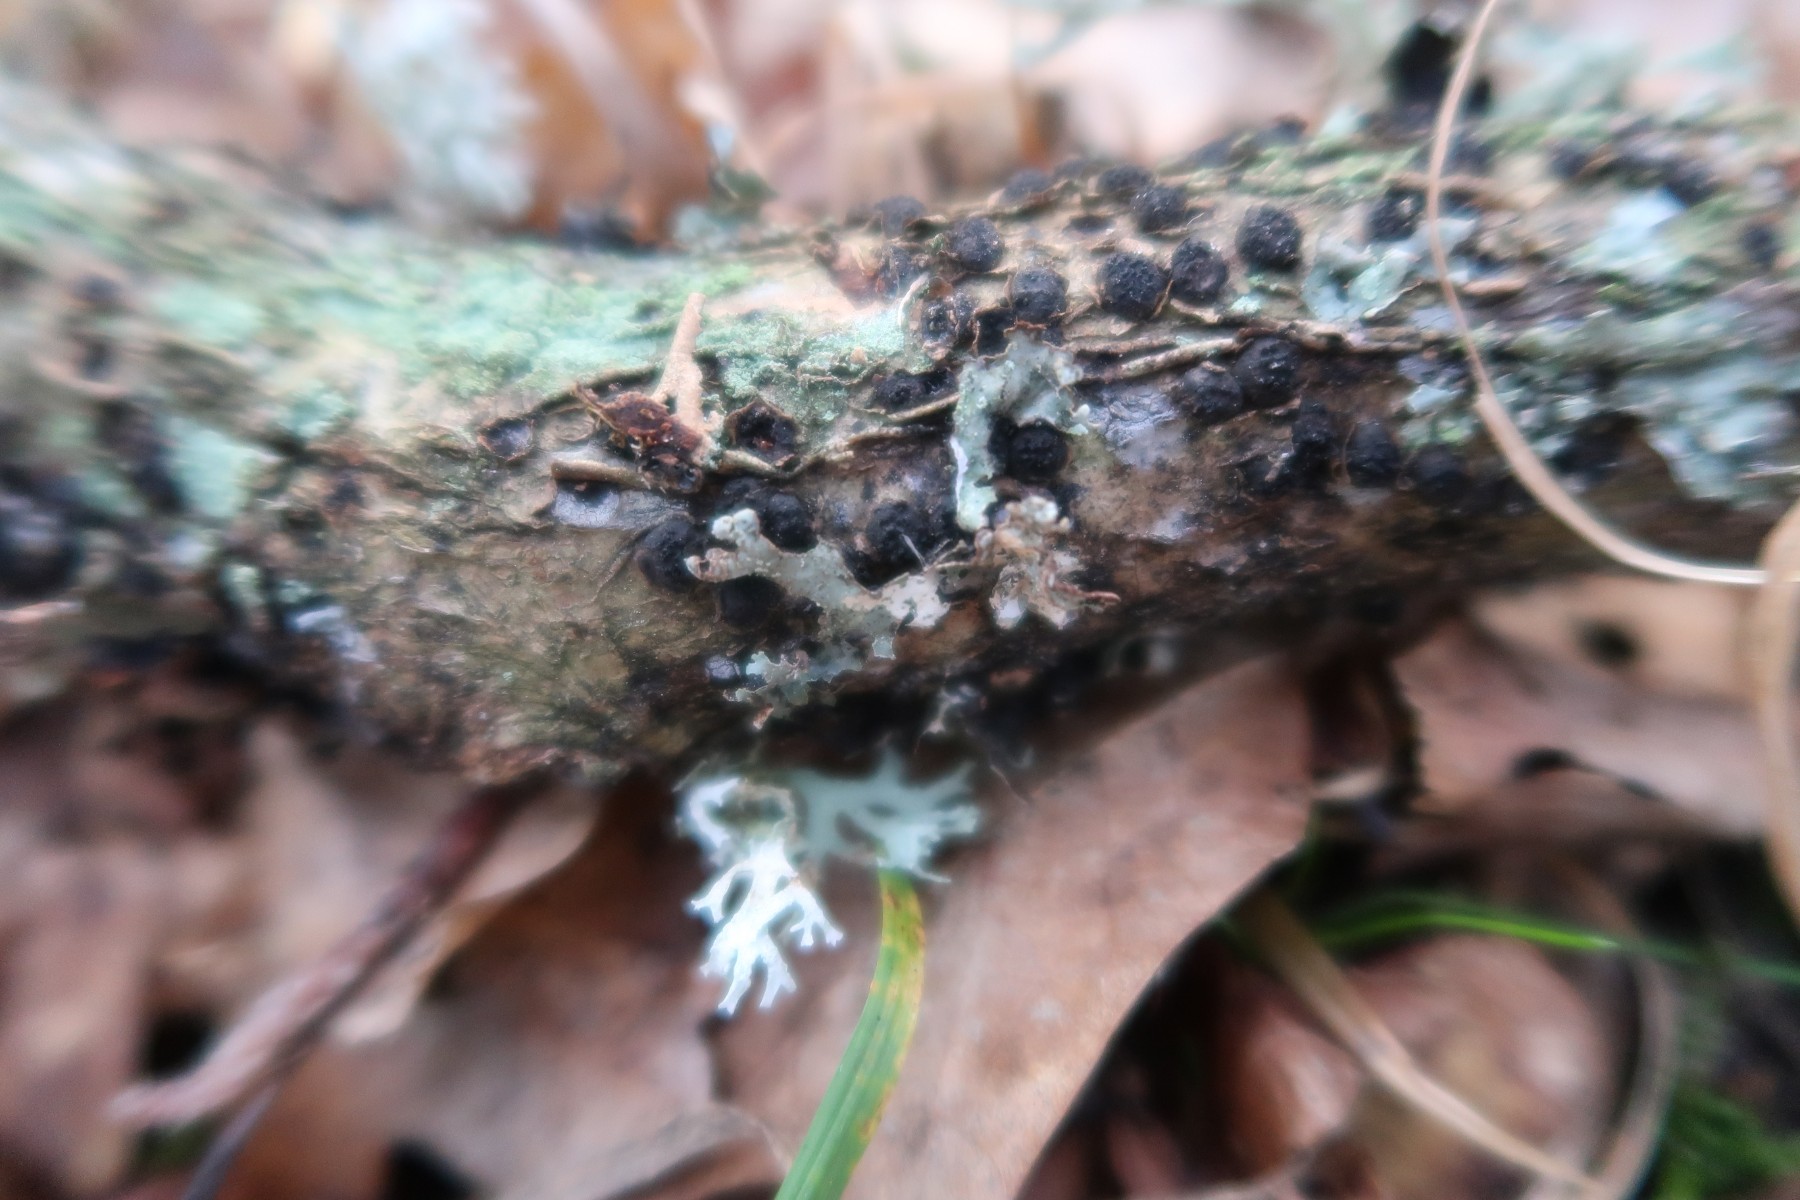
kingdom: Fungi
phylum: Ascomycota
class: Sordariomycetes
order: Xylariales
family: Diatrypaceae
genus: Diatrypella
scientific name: Diatrypella quercina
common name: ege-kulskorpe
